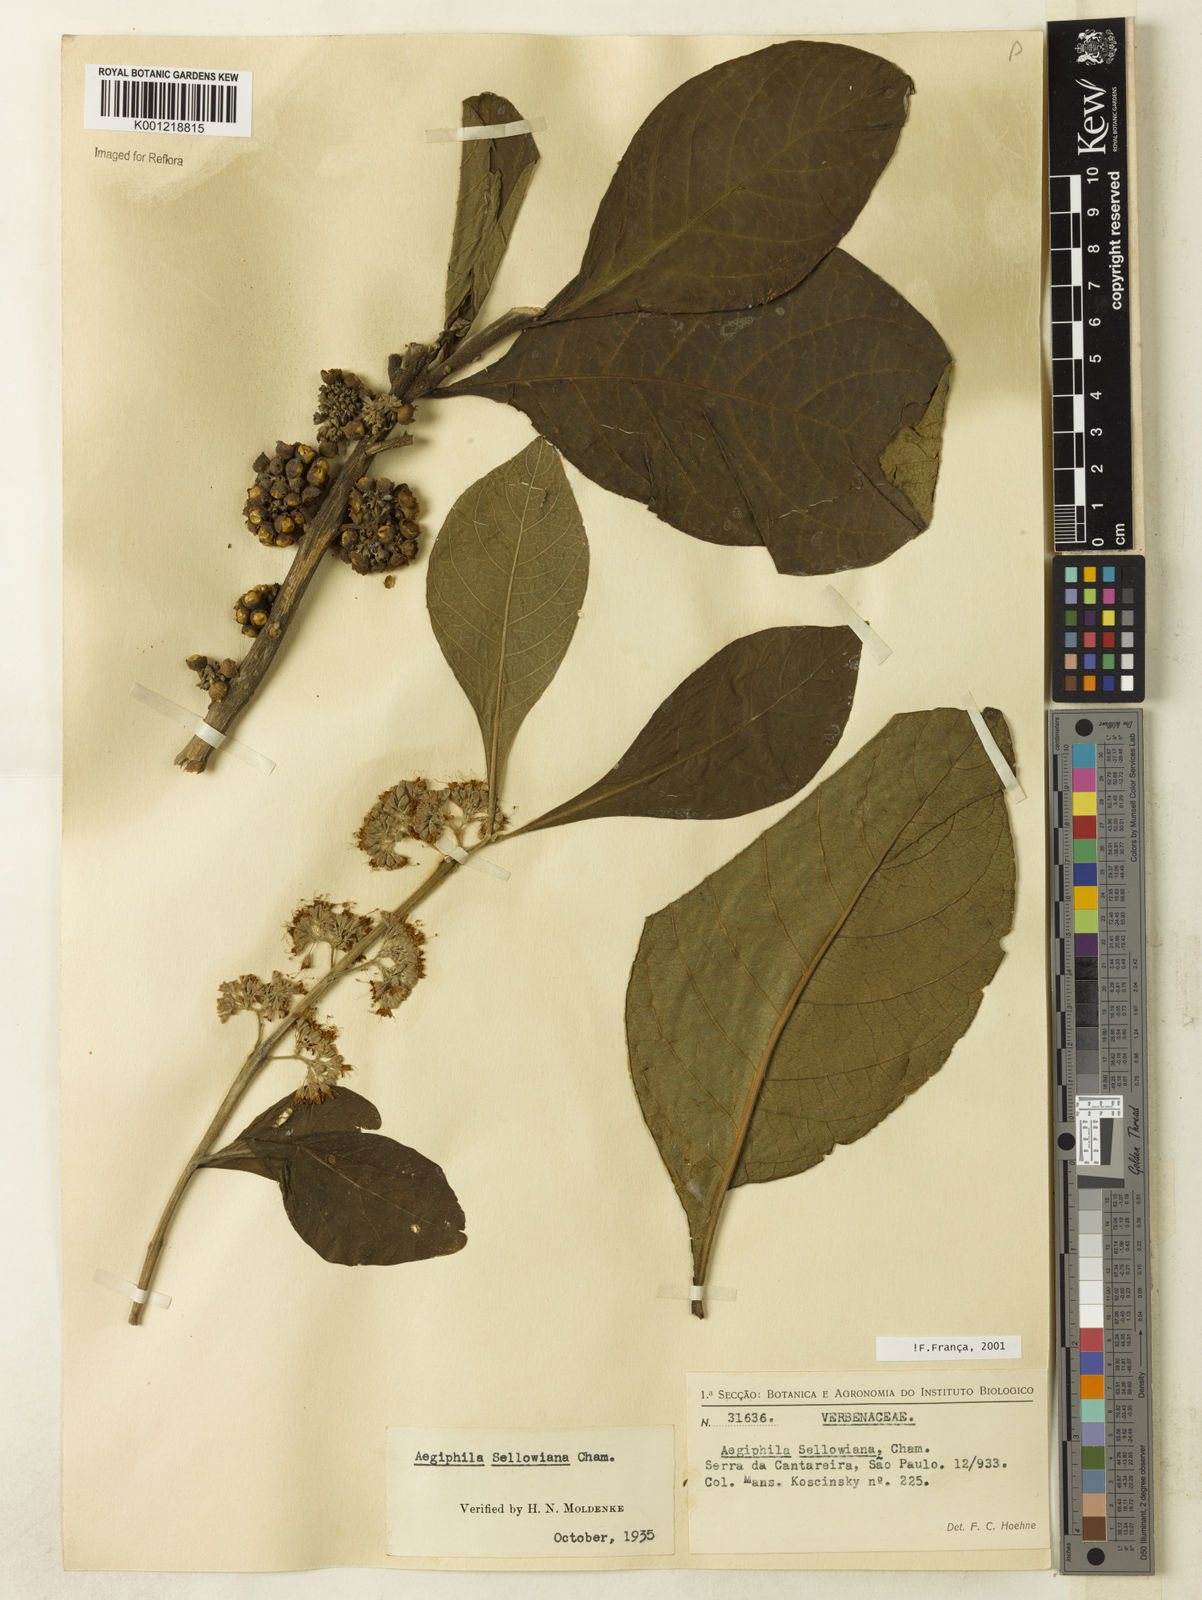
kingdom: Plantae
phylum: Tracheophyta
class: Magnoliopsida
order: Lamiales
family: Lamiaceae
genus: Aegiphila
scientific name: Aegiphila verticillata
